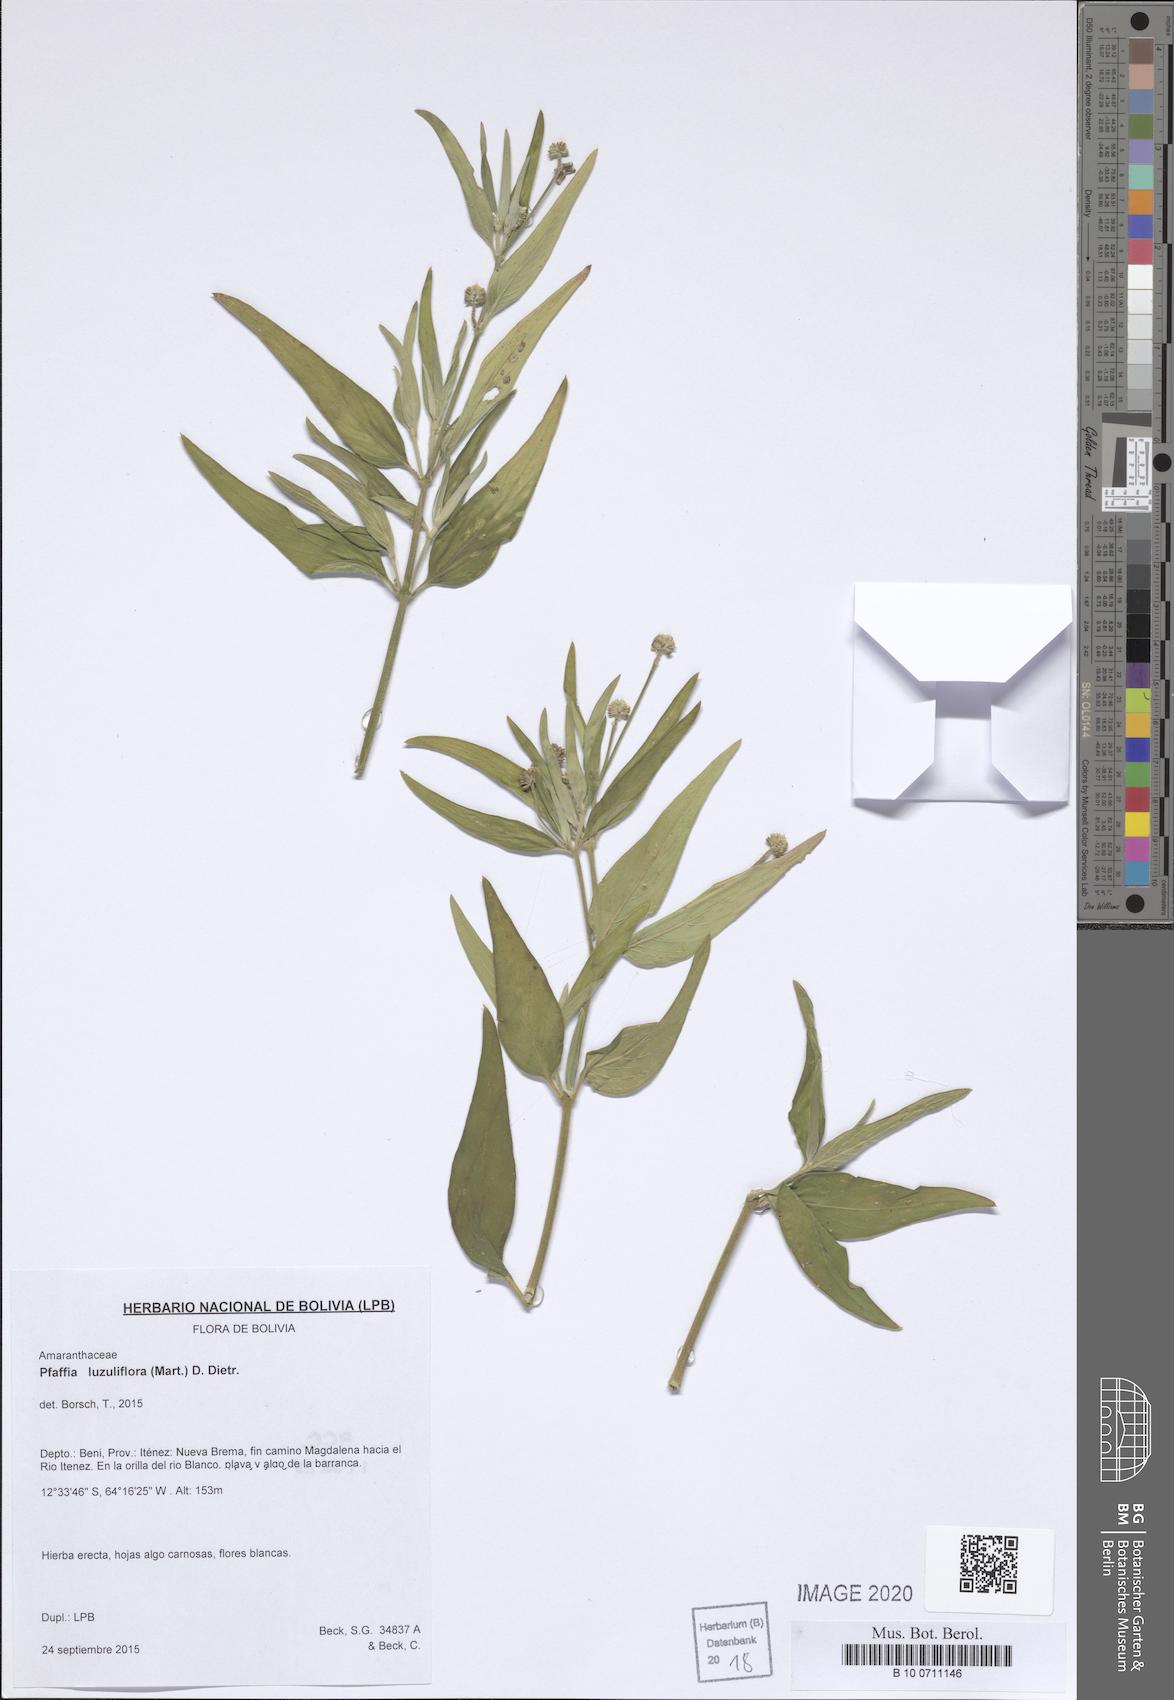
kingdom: Plantae
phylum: Tracheophyta
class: Magnoliopsida
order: Caryophyllales
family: Amaranthaceae
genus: Pfaffia
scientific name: Pfaffia glomerata
